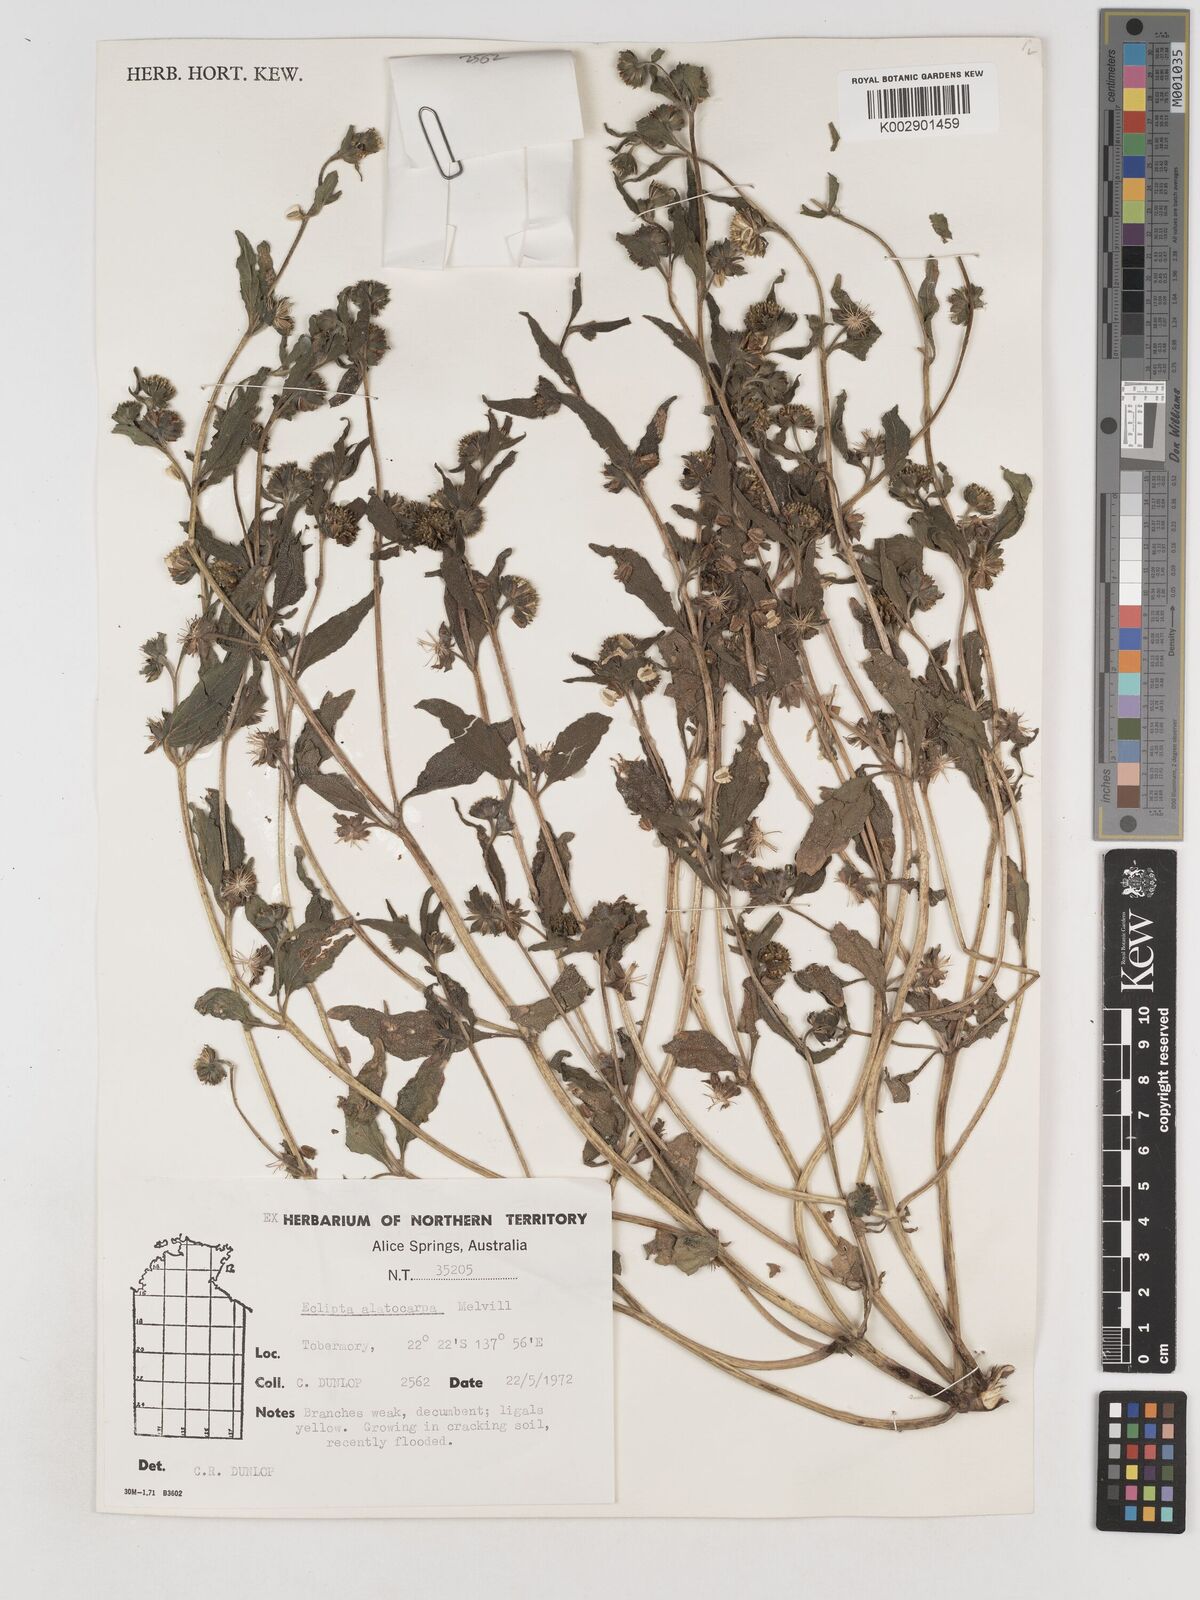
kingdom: Plantae
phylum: Tracheophyta
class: Magnoliopsida
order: Asterales
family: Asteraceae
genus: Eclipta
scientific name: Eclipta alatocarpa
